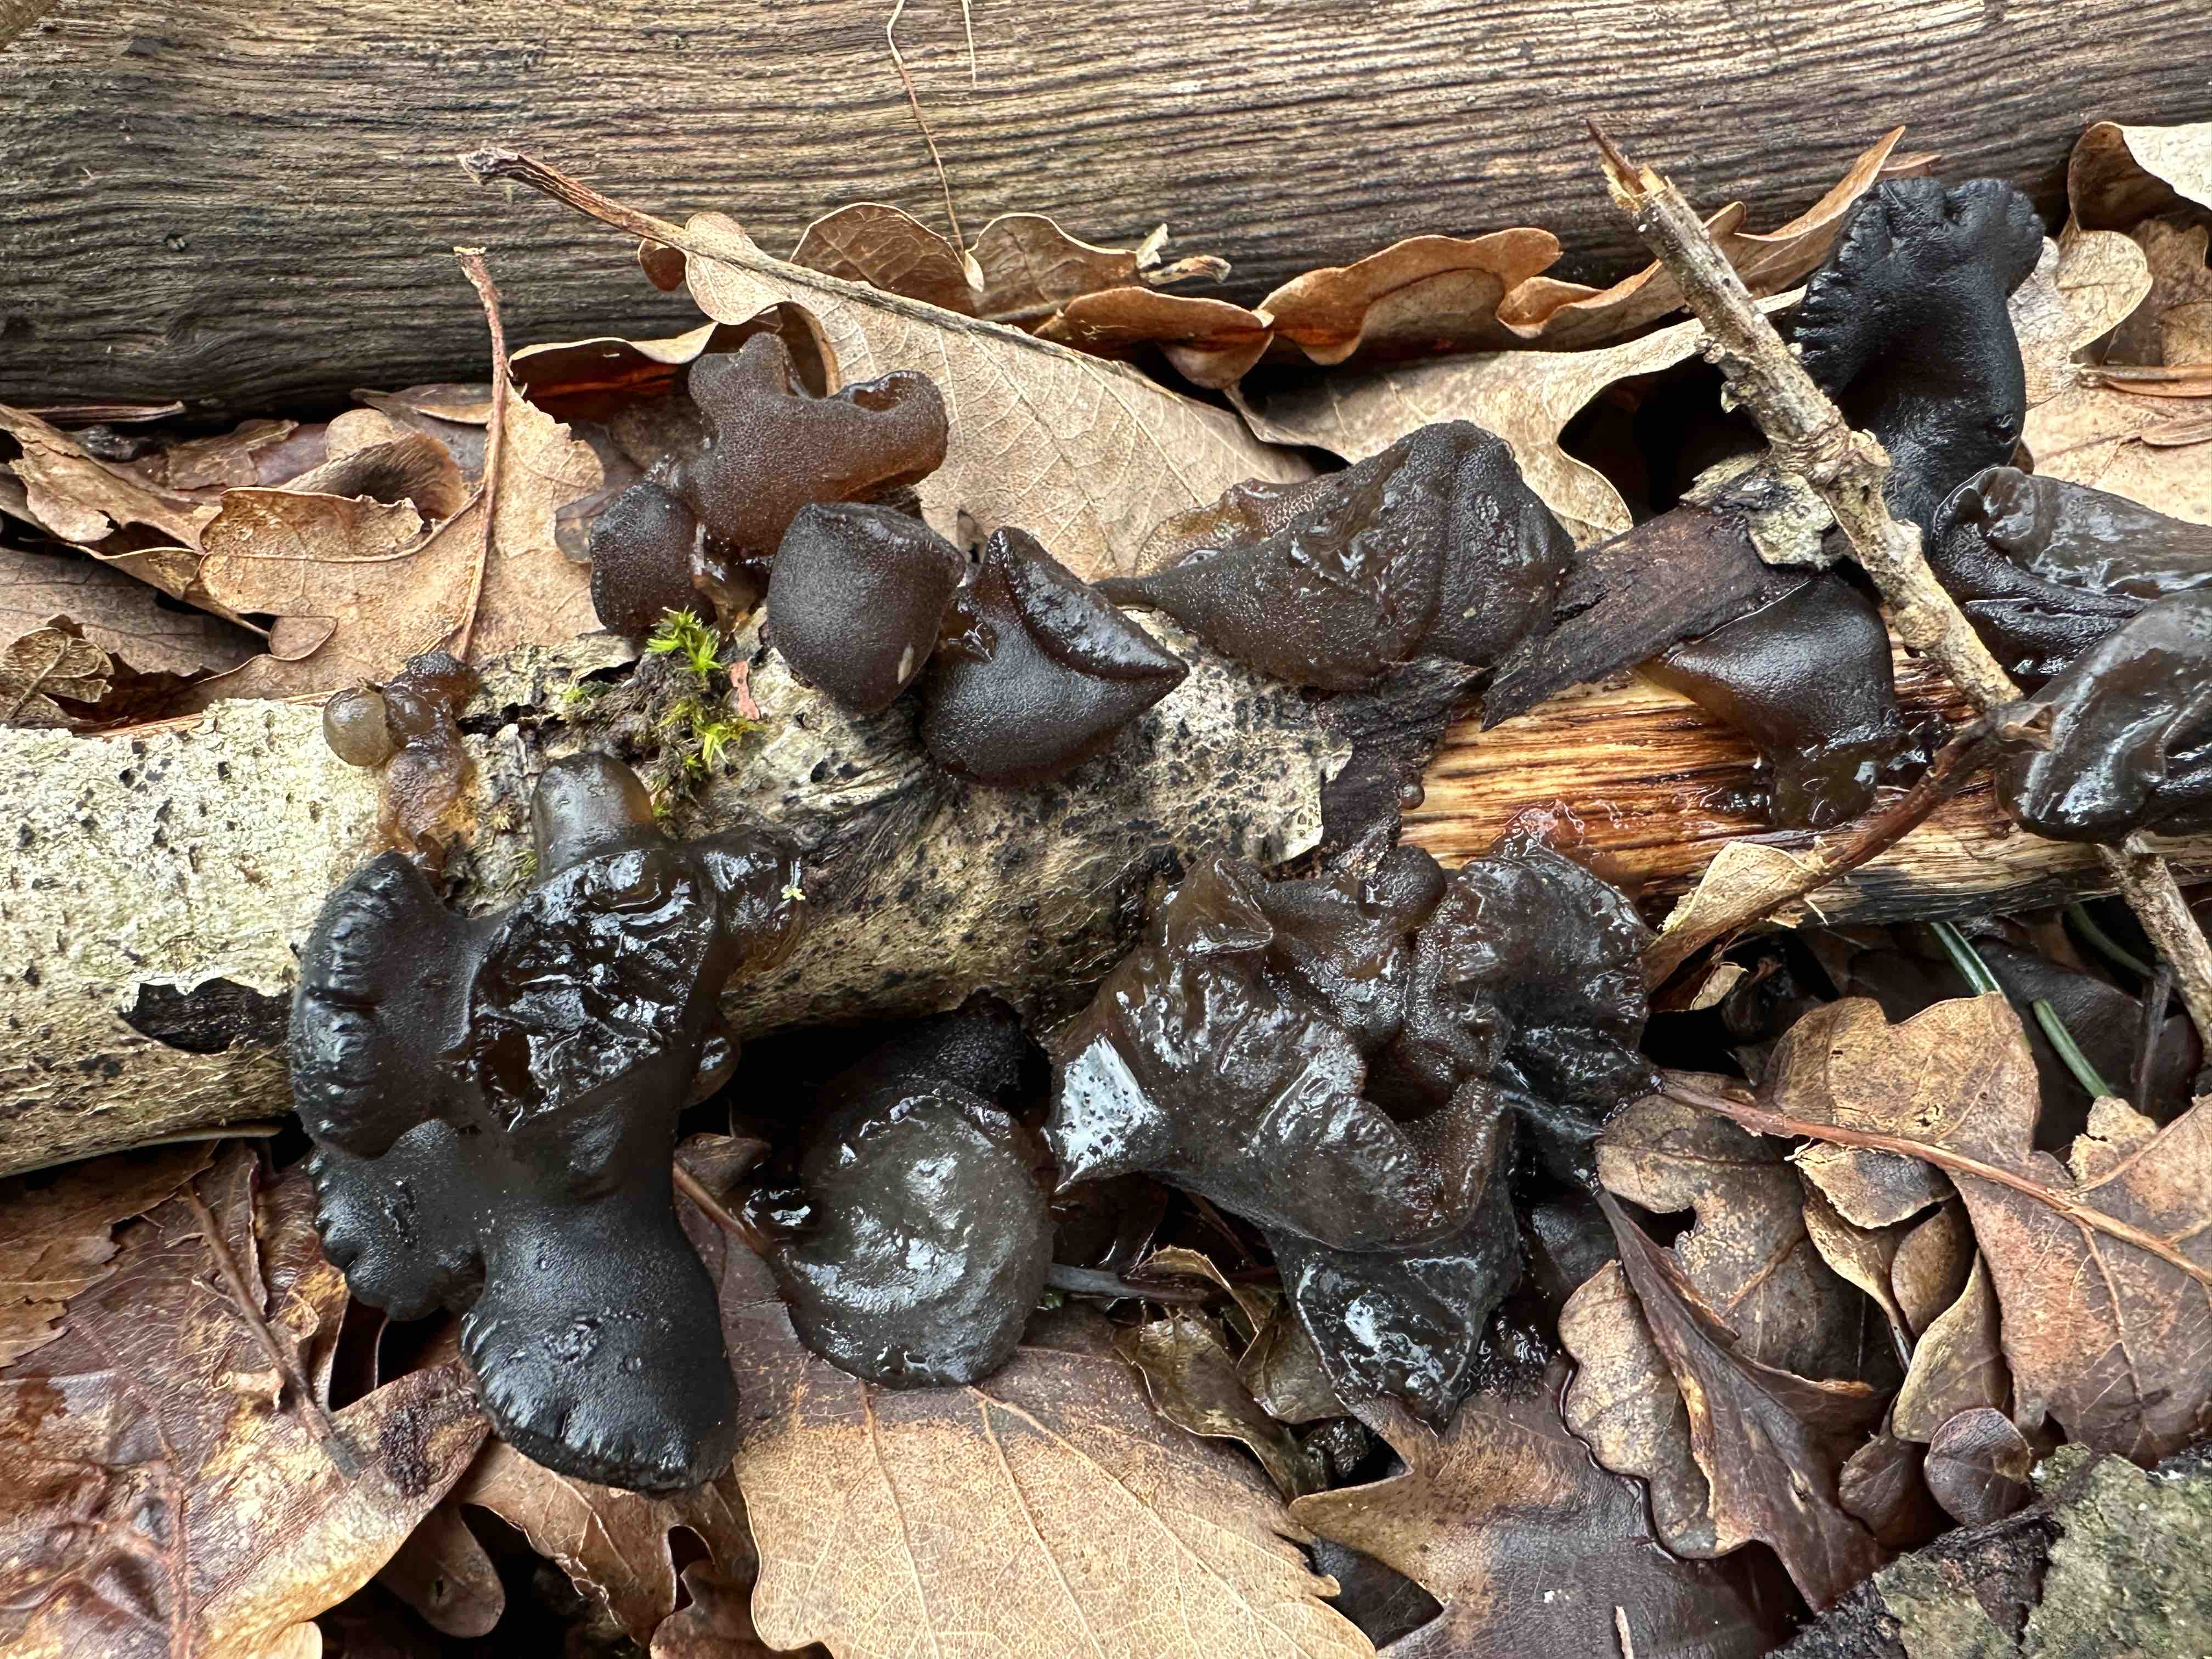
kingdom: Fungi
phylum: Basidiomycota
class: Agaricomycetes
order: Auriculariales
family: Auriculariaceae
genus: Exidia
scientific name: Exidia glandulosa
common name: ege-bævretop
